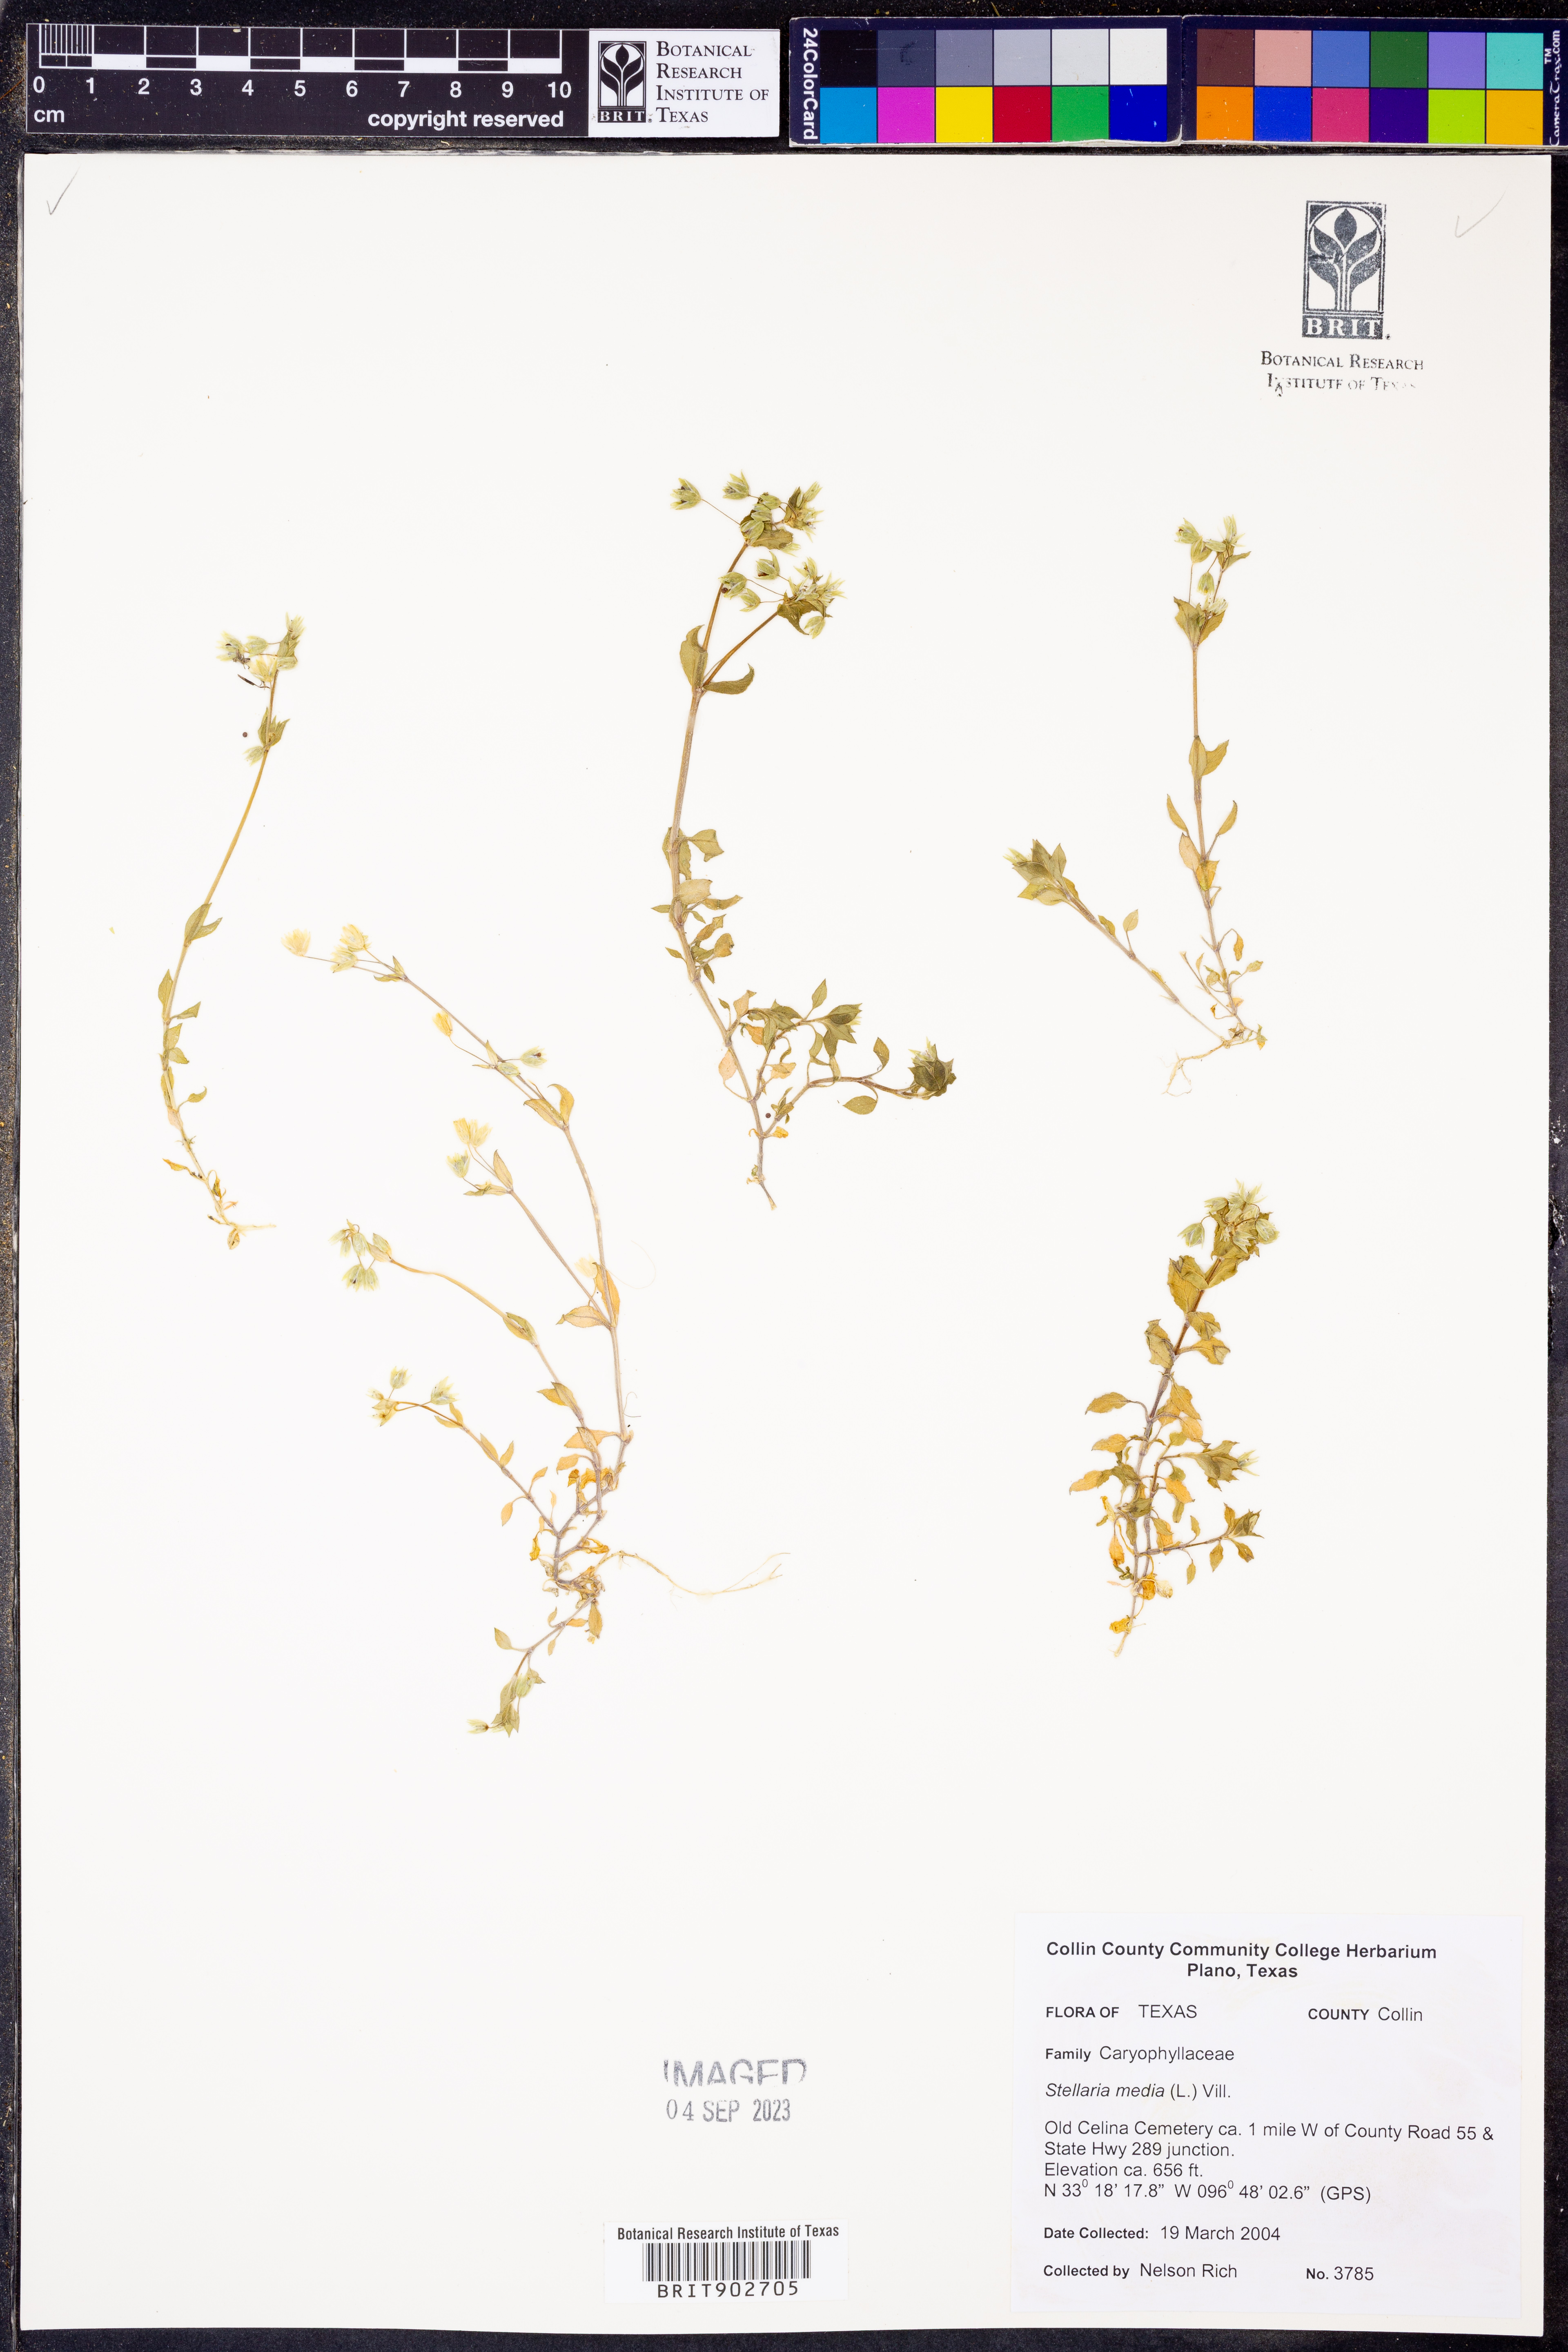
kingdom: Plantae
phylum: Tracheophyta
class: Magnoliopsida
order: Caryophyllales
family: Caryophyllaceae
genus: Stellaria
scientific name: Stellaria media
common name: Common chickweed
